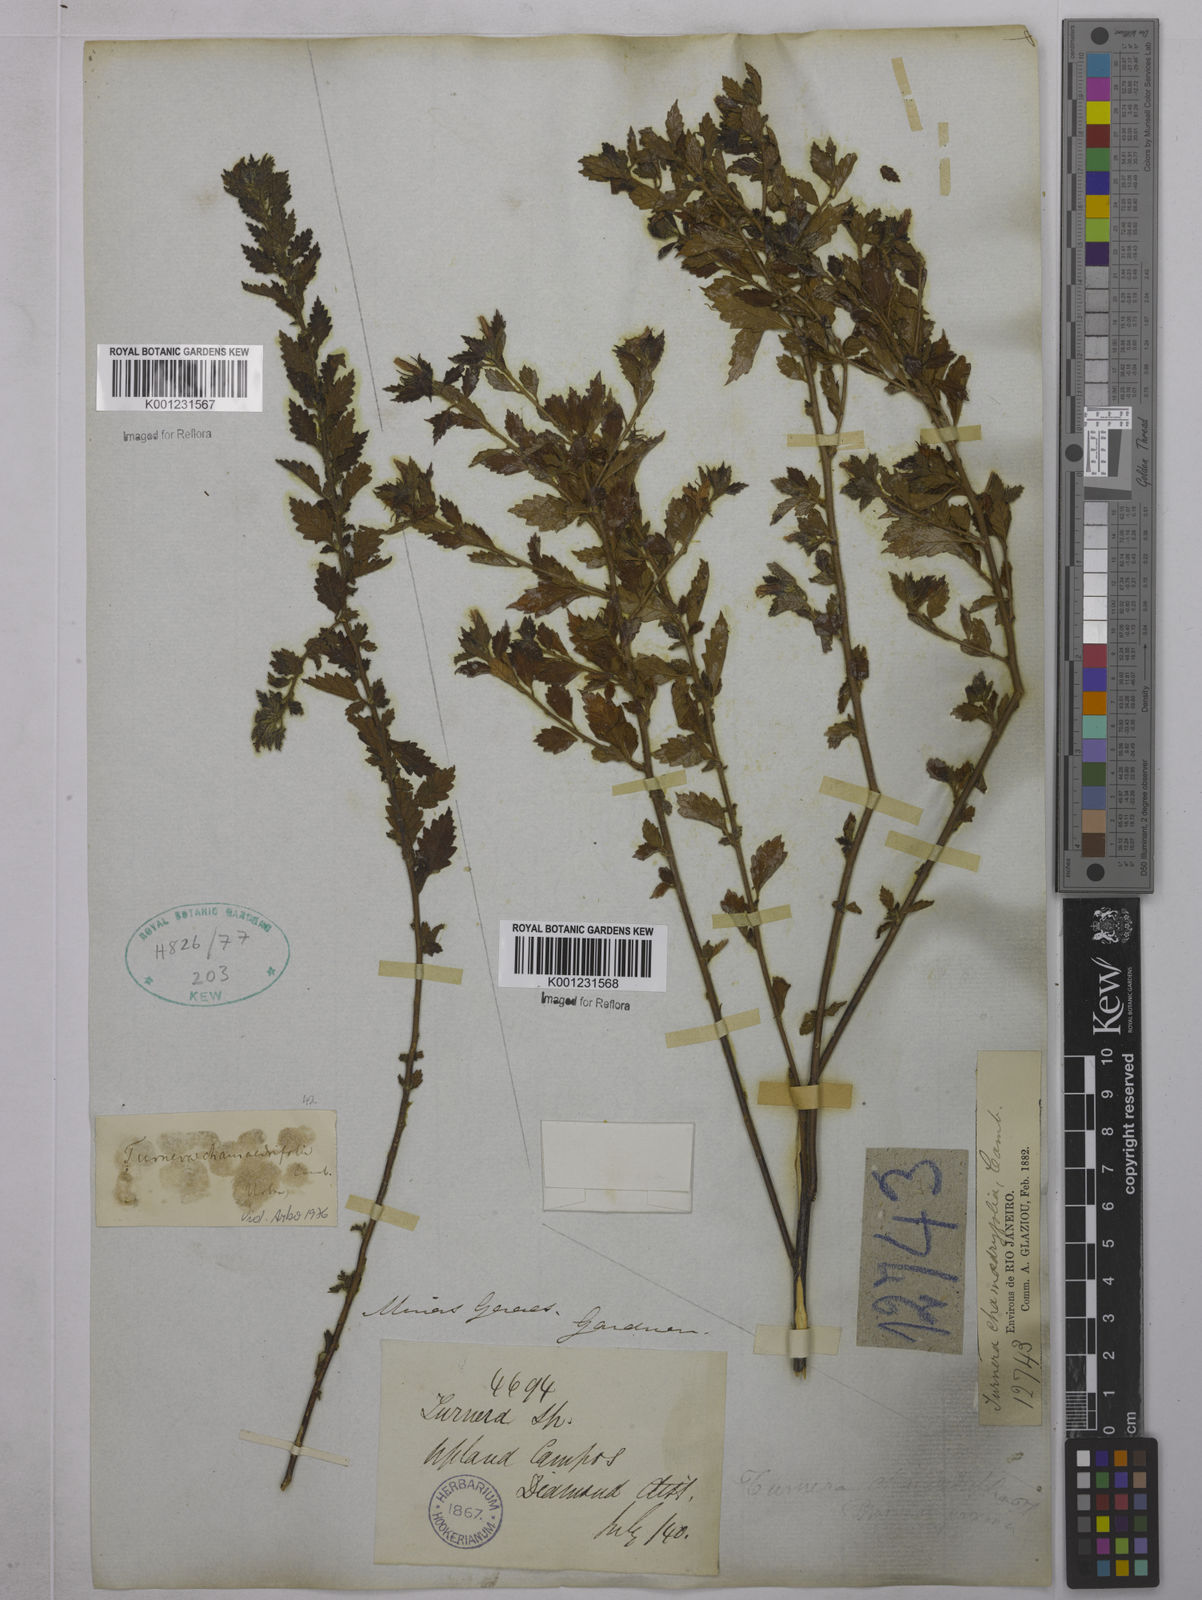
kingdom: Plantae
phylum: Tracheophyta
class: Magnoliopsida
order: Malpighiales
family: Turneraceae
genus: Turnera
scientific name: Turnera chamaedrifolia
